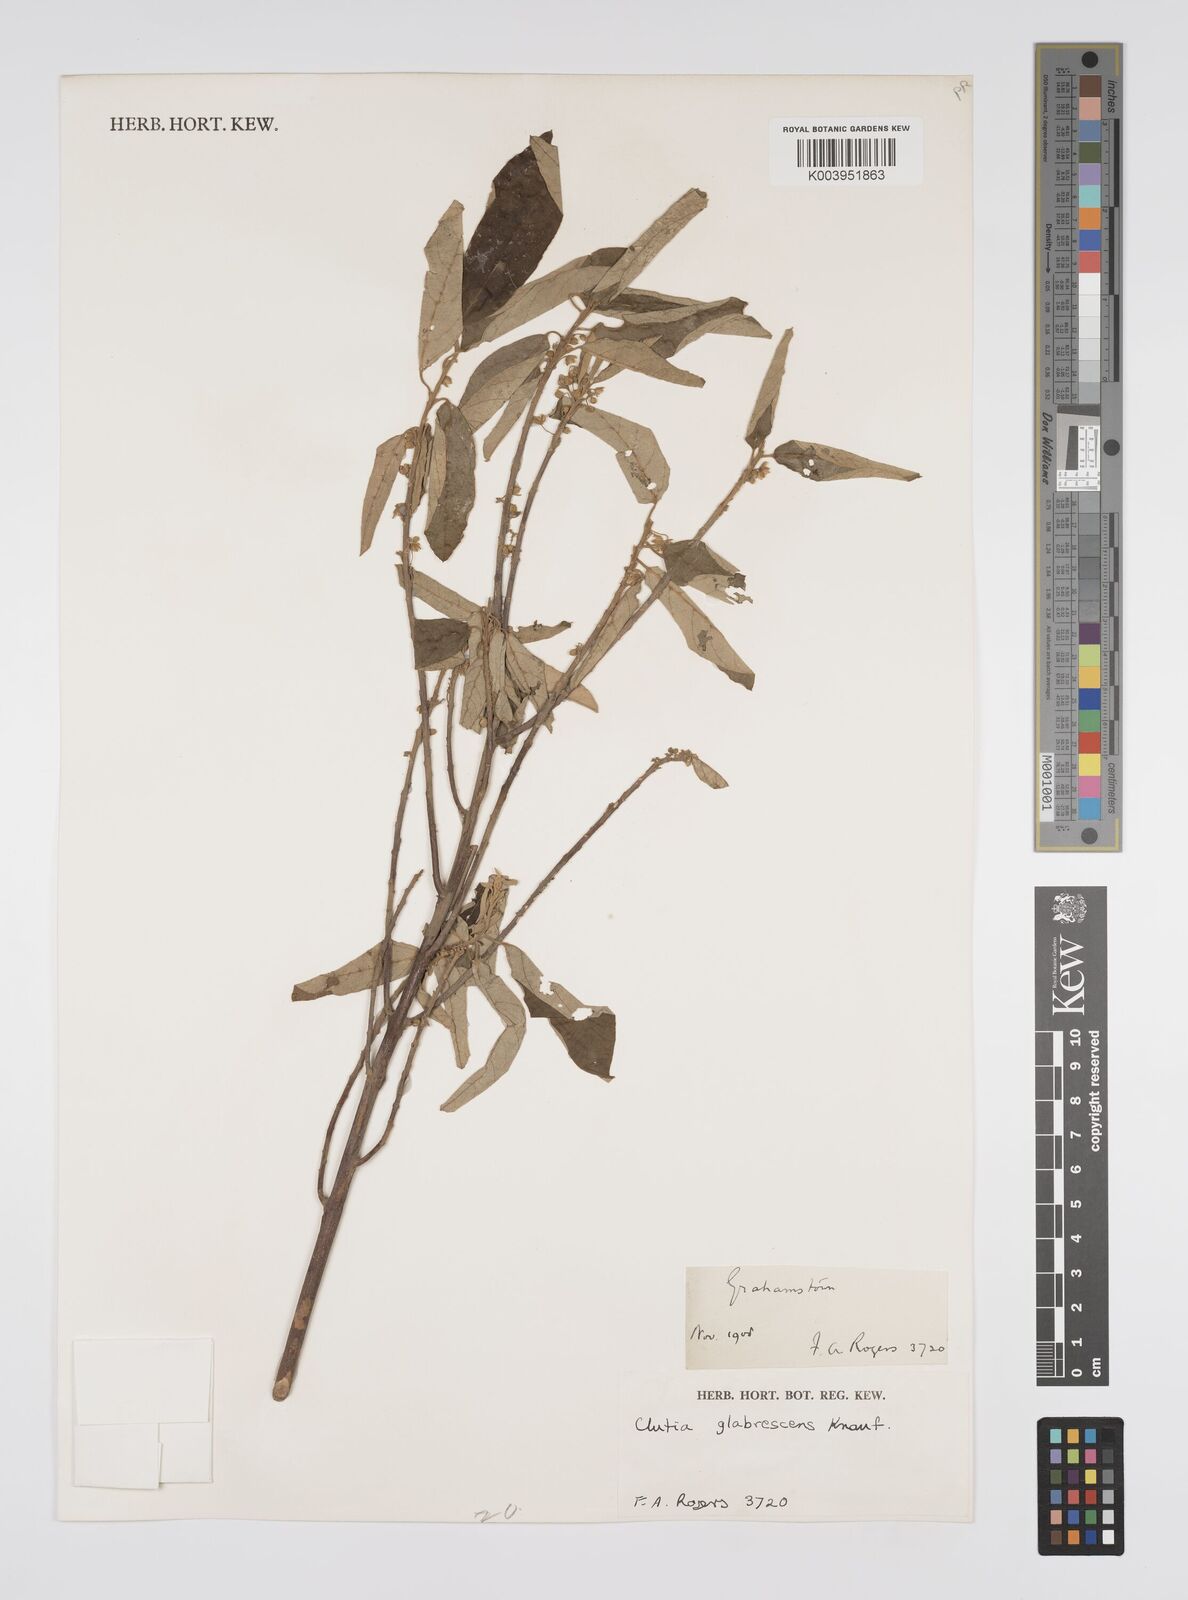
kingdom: Plantae
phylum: Tracheophyta
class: Magnoliopsida
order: Malpighiales
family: Peraceae
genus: Clutia
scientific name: Clutia abyssinica
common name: Large lightning bush
